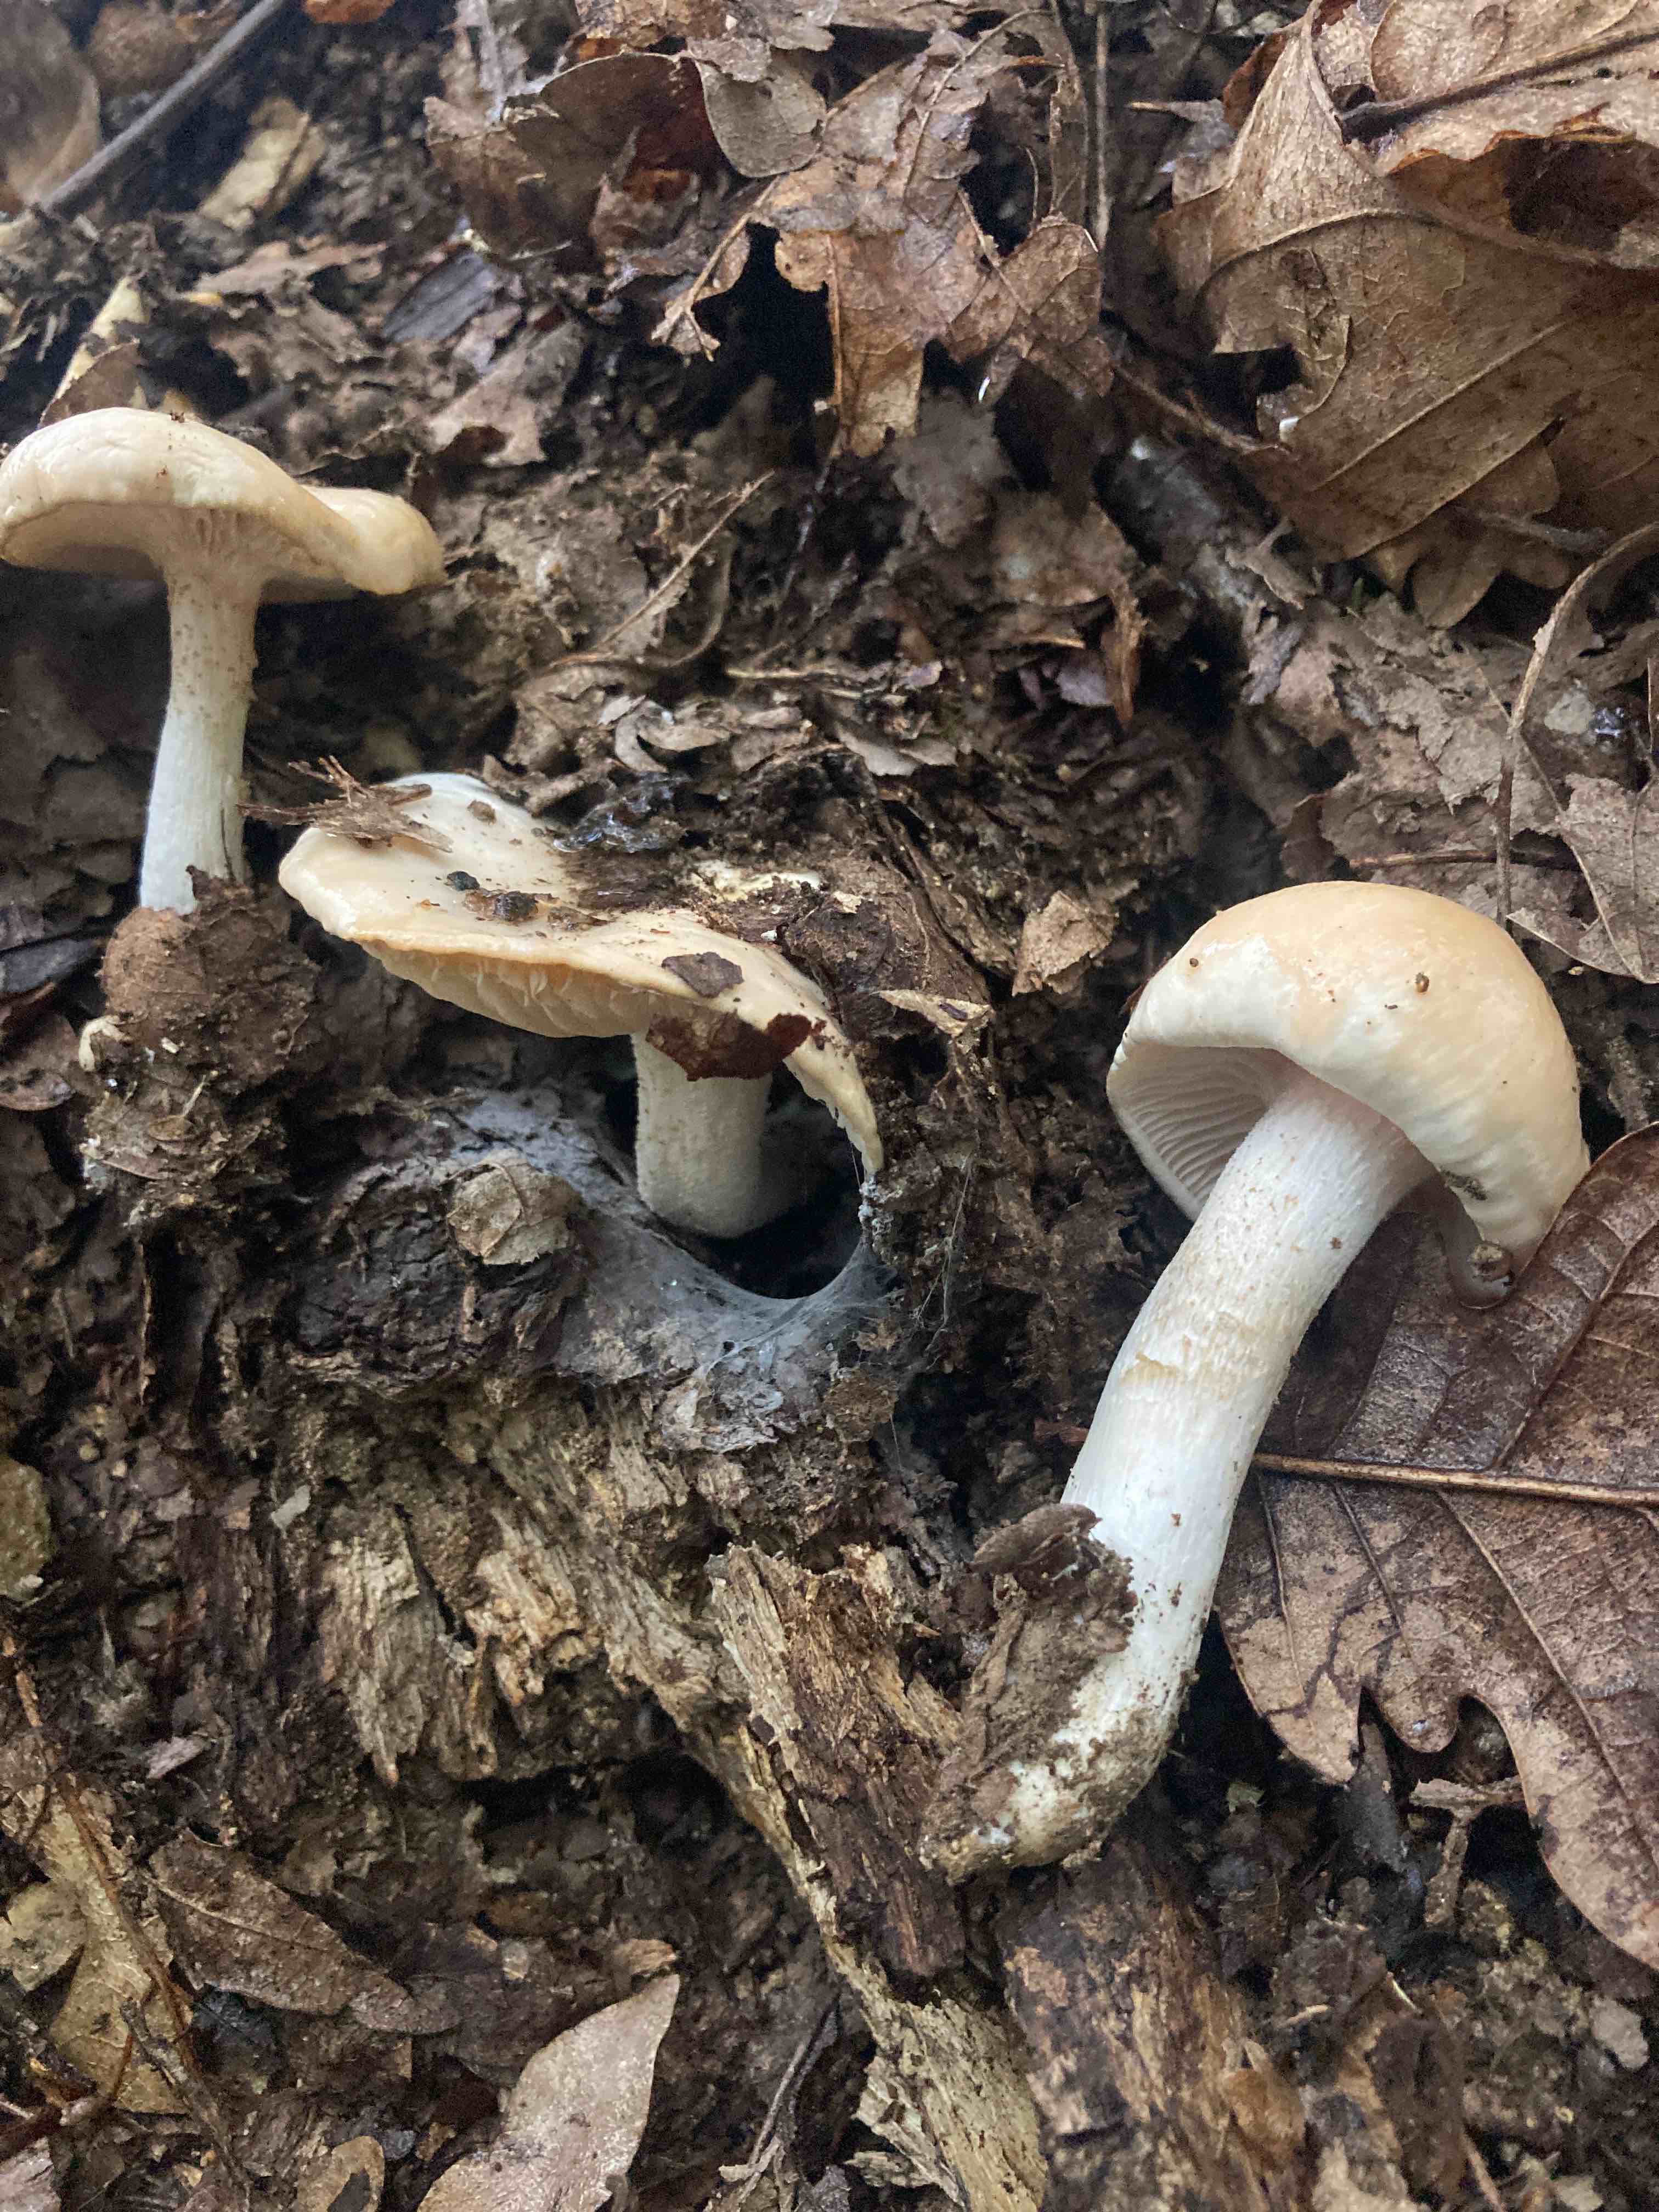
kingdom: Fungi
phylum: Basidiomycota
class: Agaricomycetes
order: Agaricales
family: Hygrophoraceae
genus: Hygrophorus
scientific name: Hygrophorus cossus
